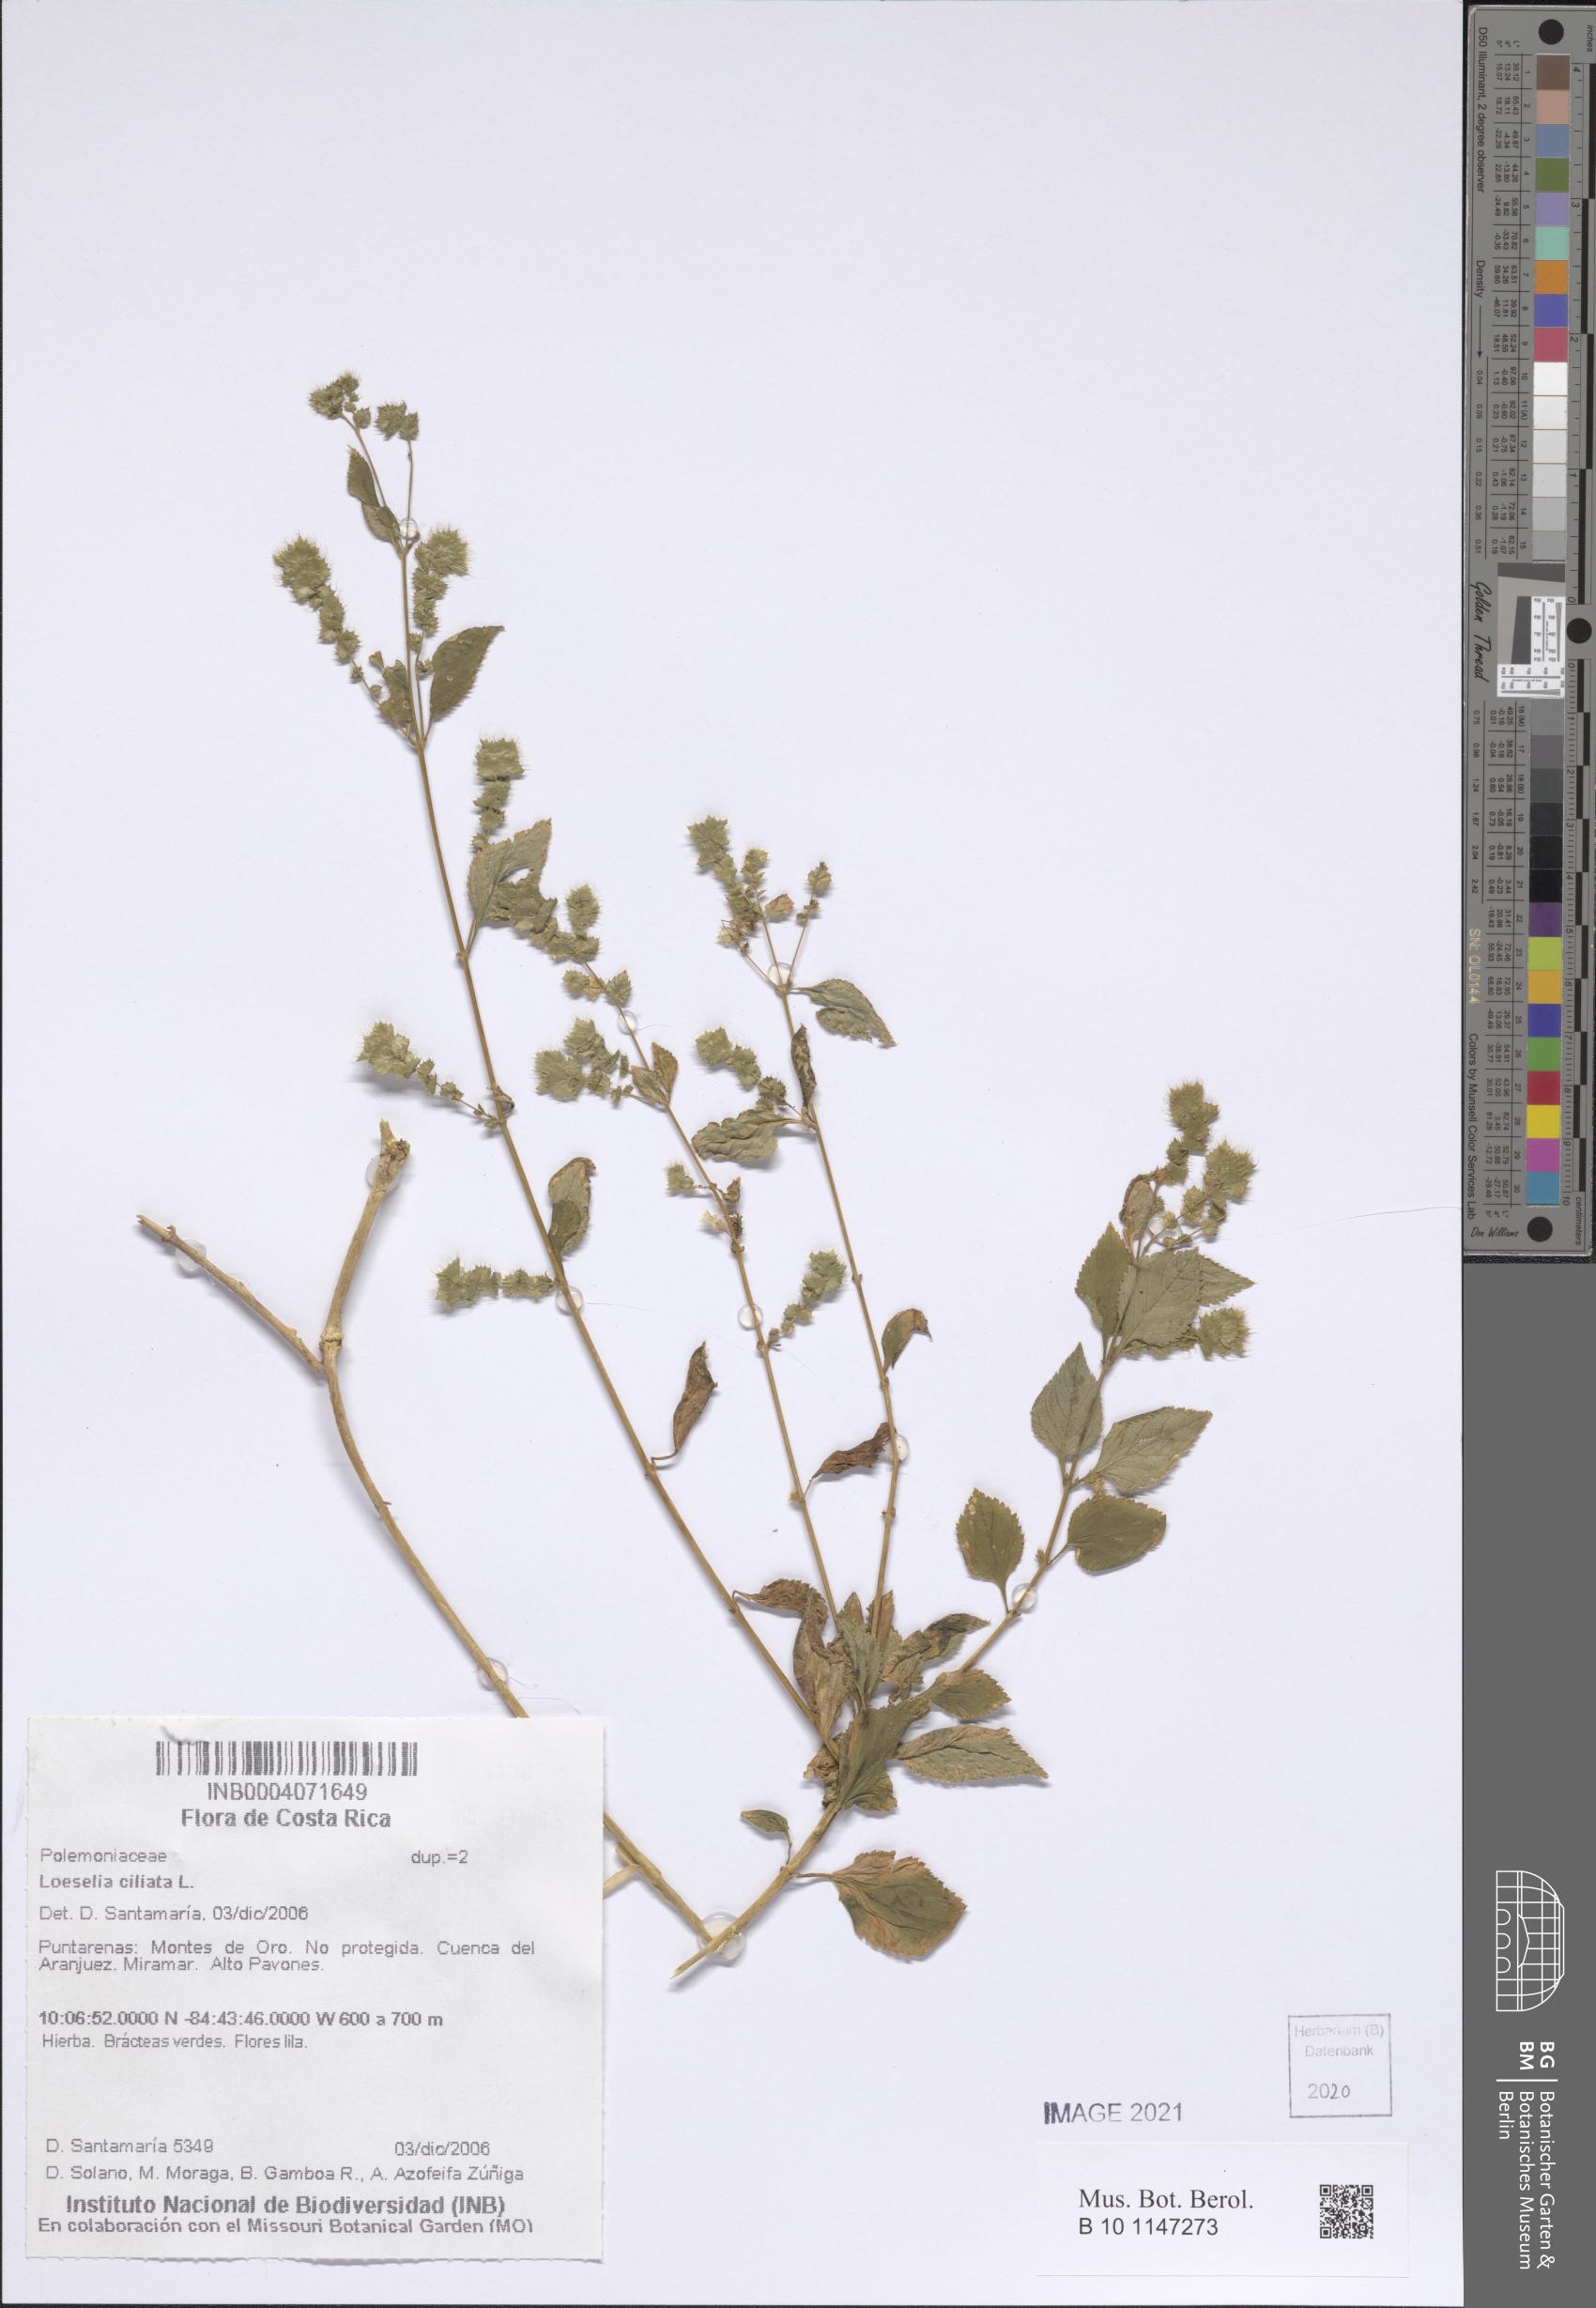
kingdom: Plantae
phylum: Tracheophyta
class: Magnoliopsida
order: Ericales
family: Polemoniaceae
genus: Loeselia
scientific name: Loeselia ciliata
